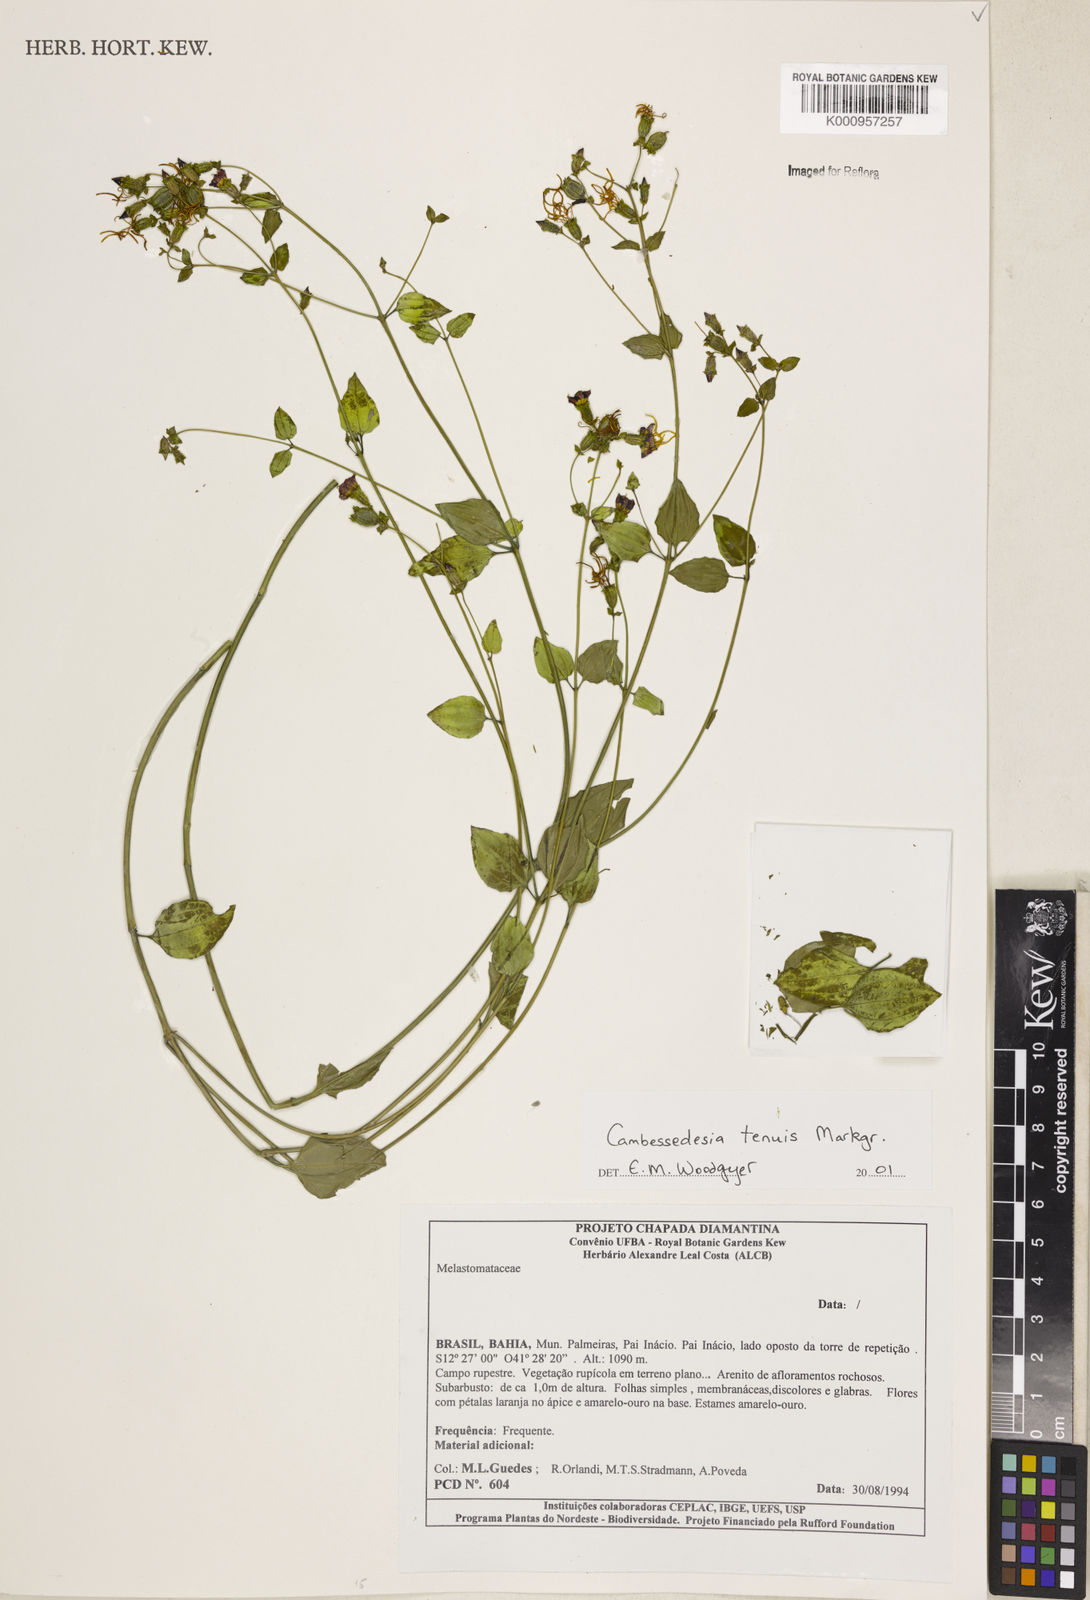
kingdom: Plantae
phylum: Tracheophyta
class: Magnoliopsida
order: Myrtales
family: Melastomataceae
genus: Cambessedesia
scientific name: Cambessedesia tenuis
